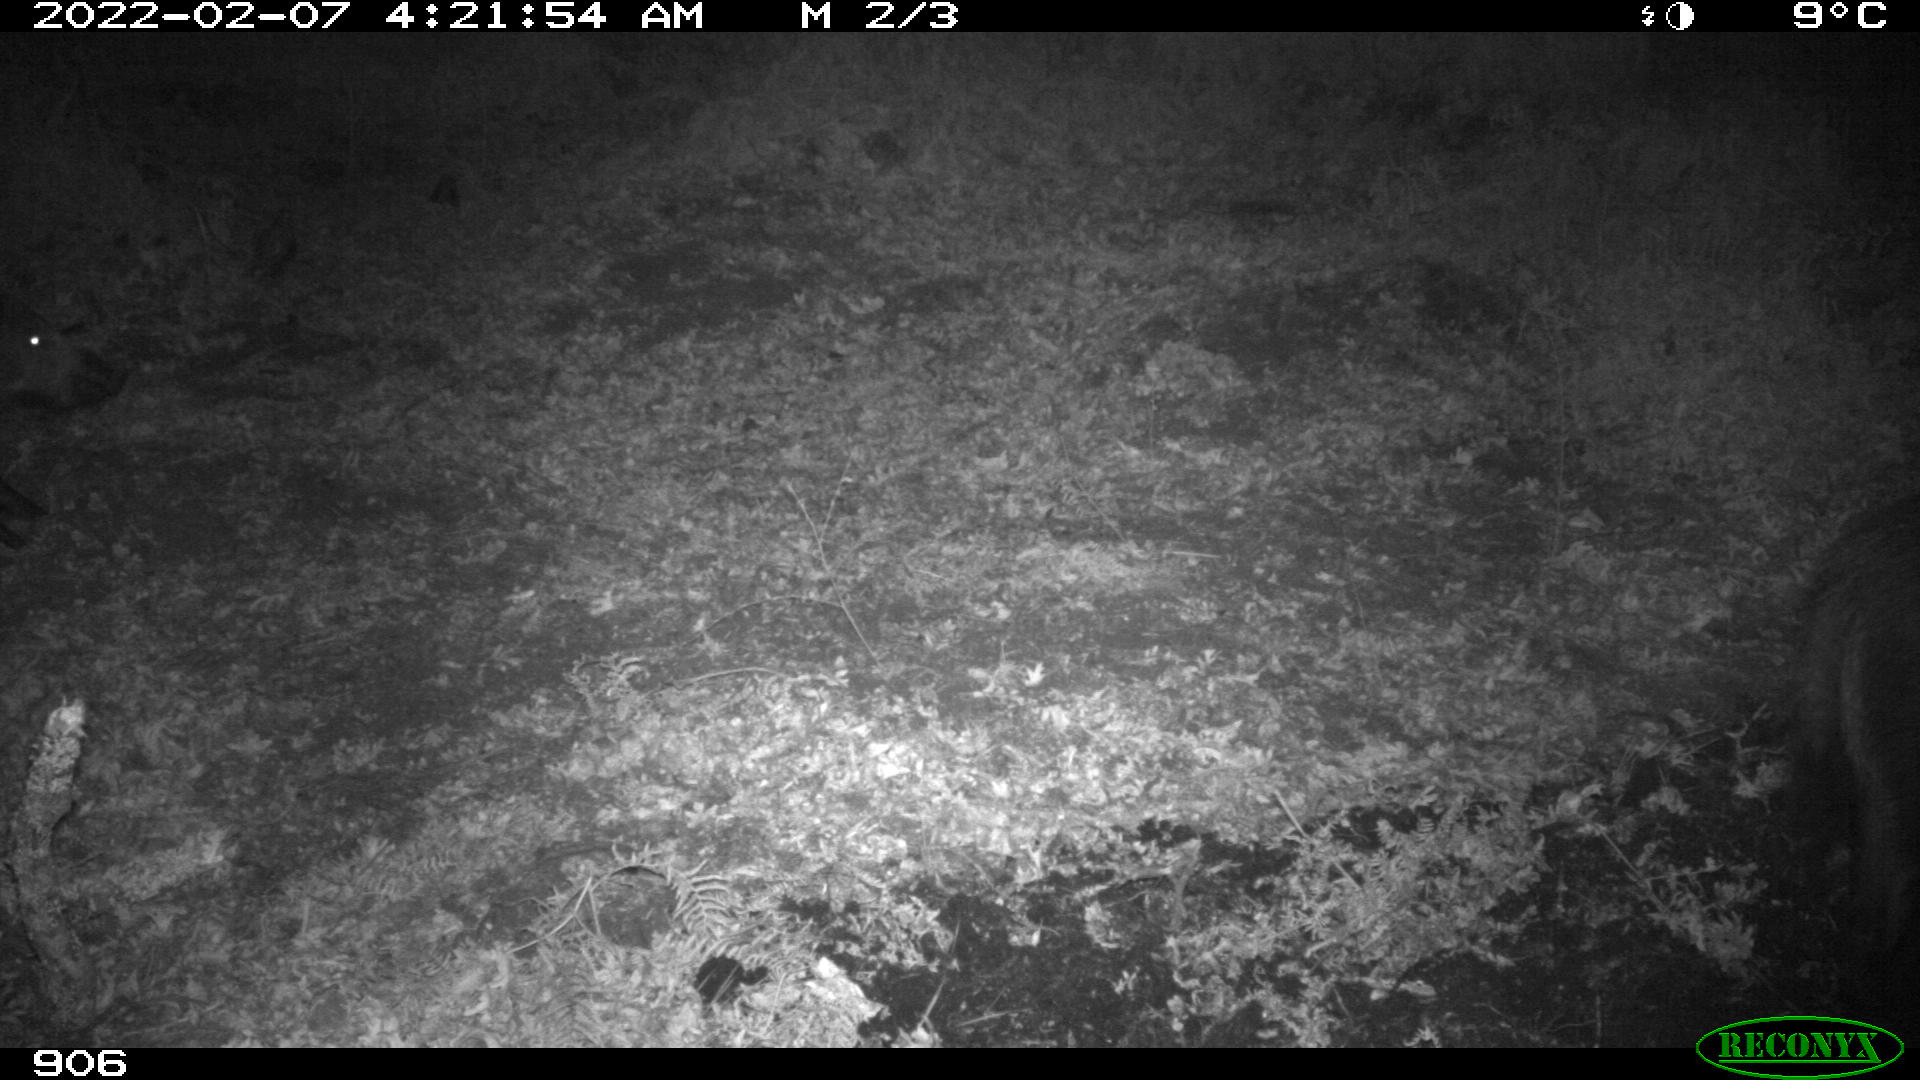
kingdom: Animalia
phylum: Chordata
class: Mammalia
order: Artiodactyla
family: Suidae
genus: Sus
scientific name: Sus scrofa
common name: Wild boar
